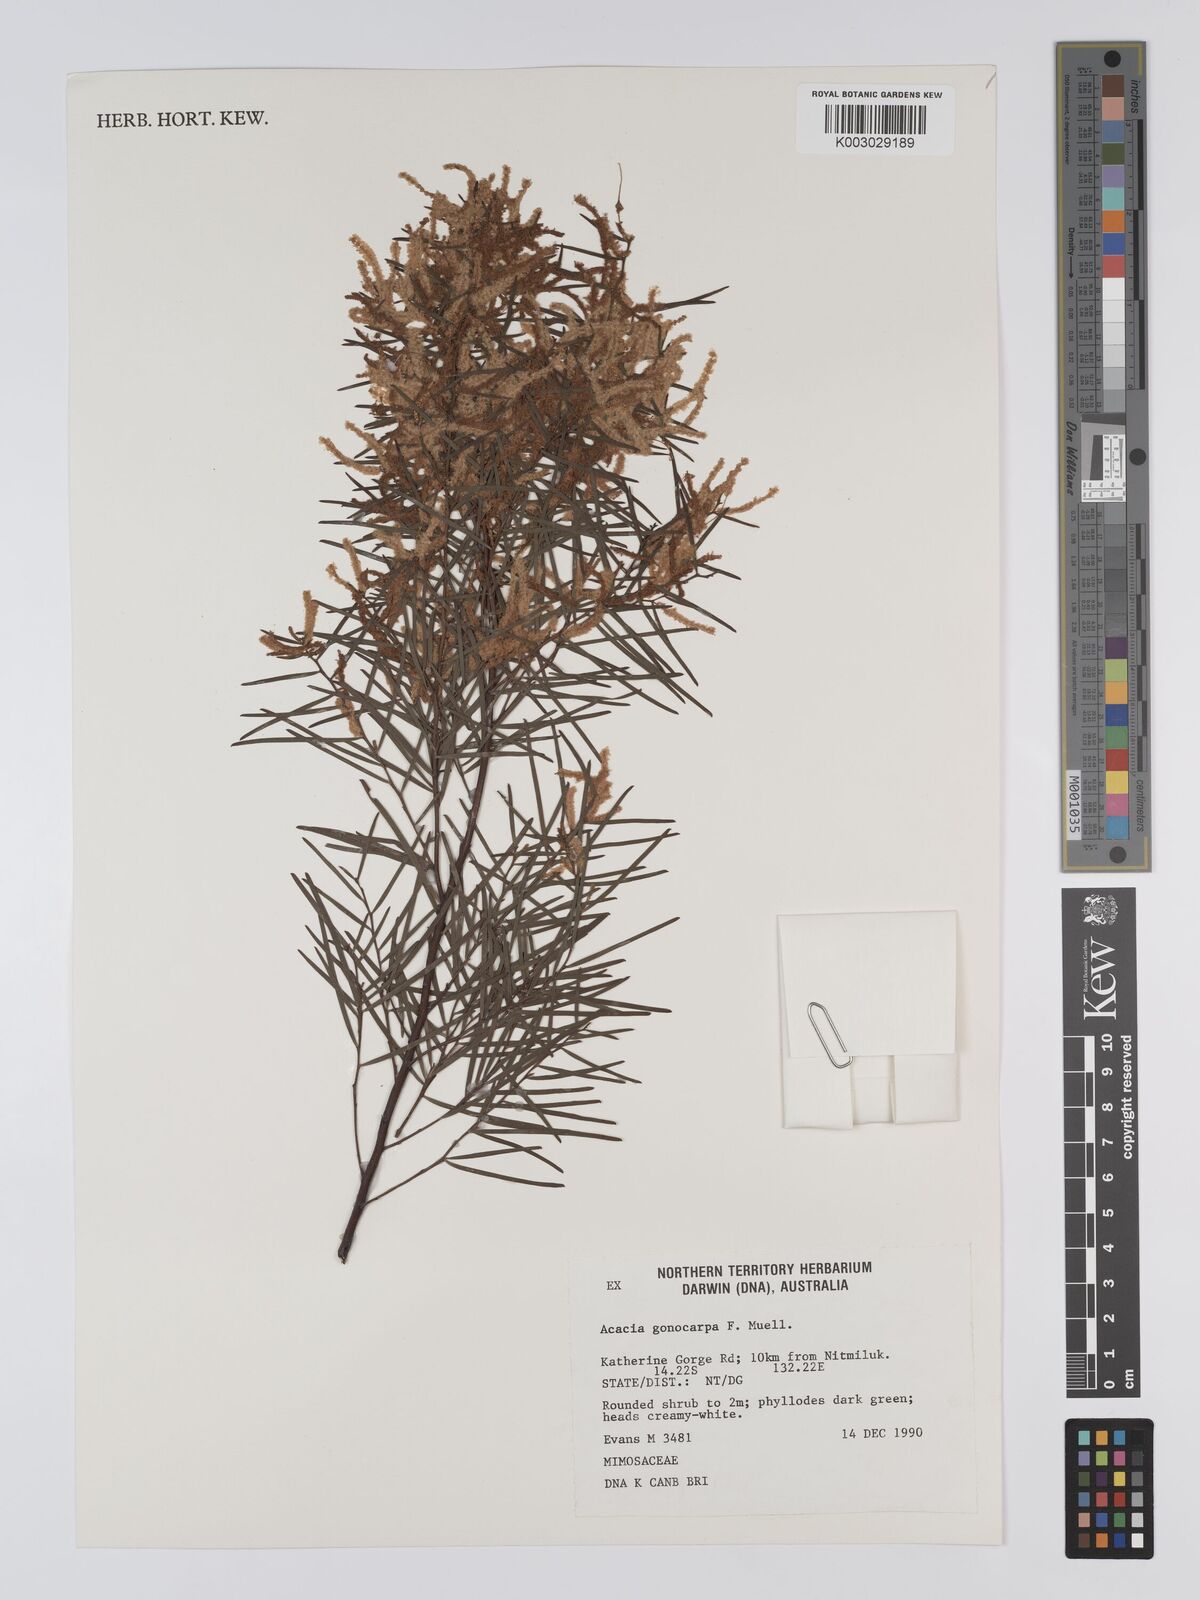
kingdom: Plantae
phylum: Tracheophyta
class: Magnoliopsida
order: Fabales
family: Fabaceae
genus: Acacia
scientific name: Acacia gonocarpa
